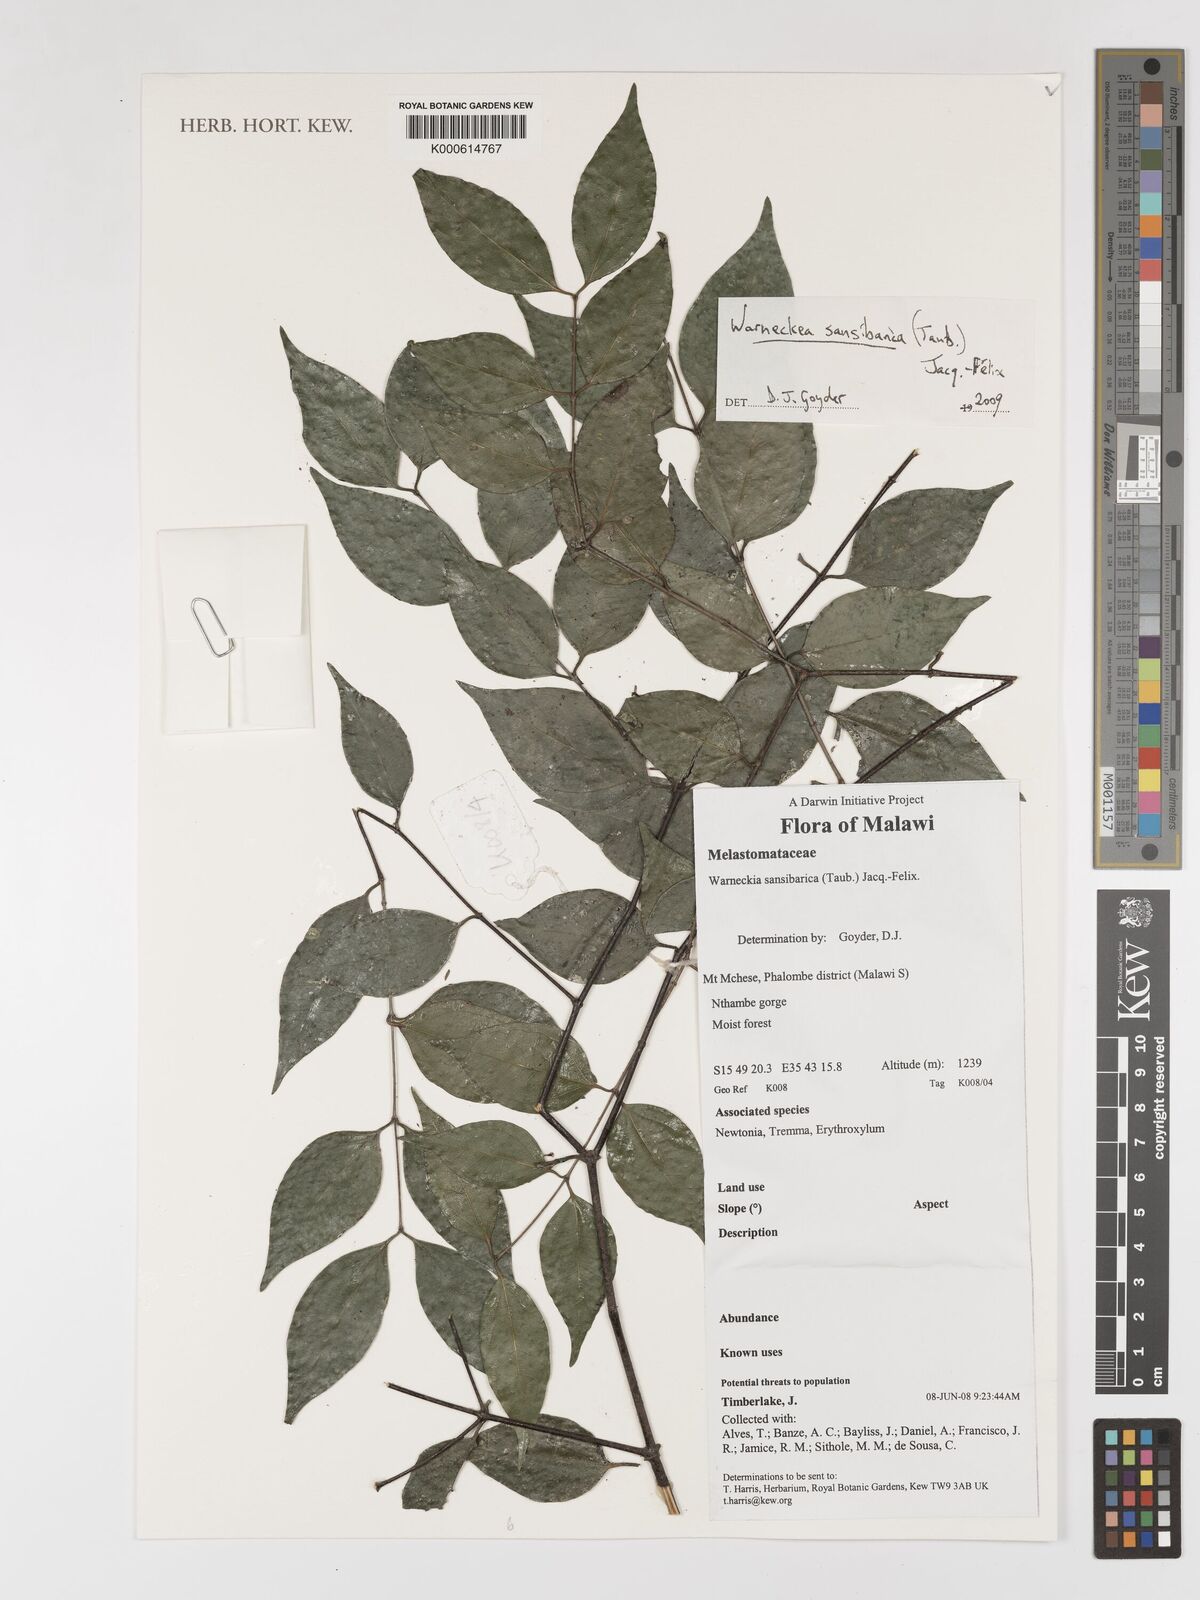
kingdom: Plantae
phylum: Tracheophyta
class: Magnoliopsida
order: Myrtales
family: Melastomataceae
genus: Warneckea
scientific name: Warneckea sansibarica
